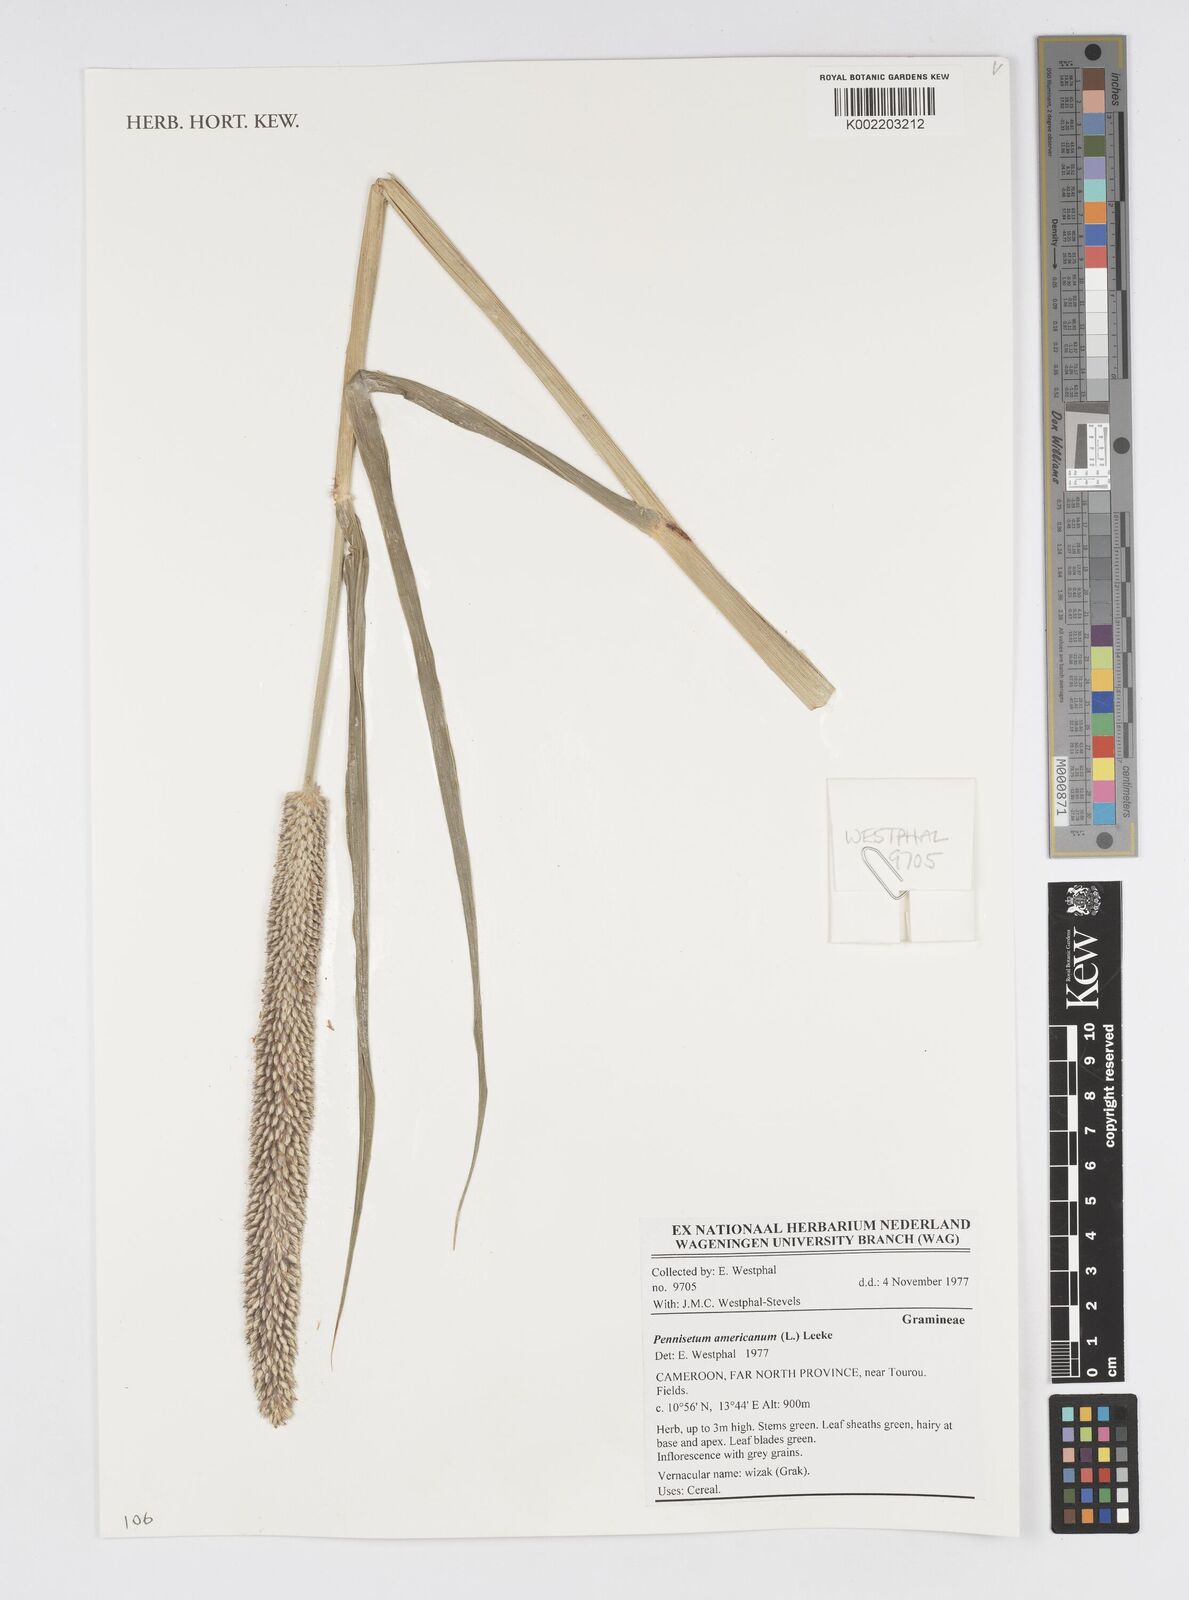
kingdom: Plantae
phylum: Tracheophyta
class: Liliopsida
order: Poales
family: Poaceae
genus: Cenchrus
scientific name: Cenchrus americanus
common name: Pearl millet
